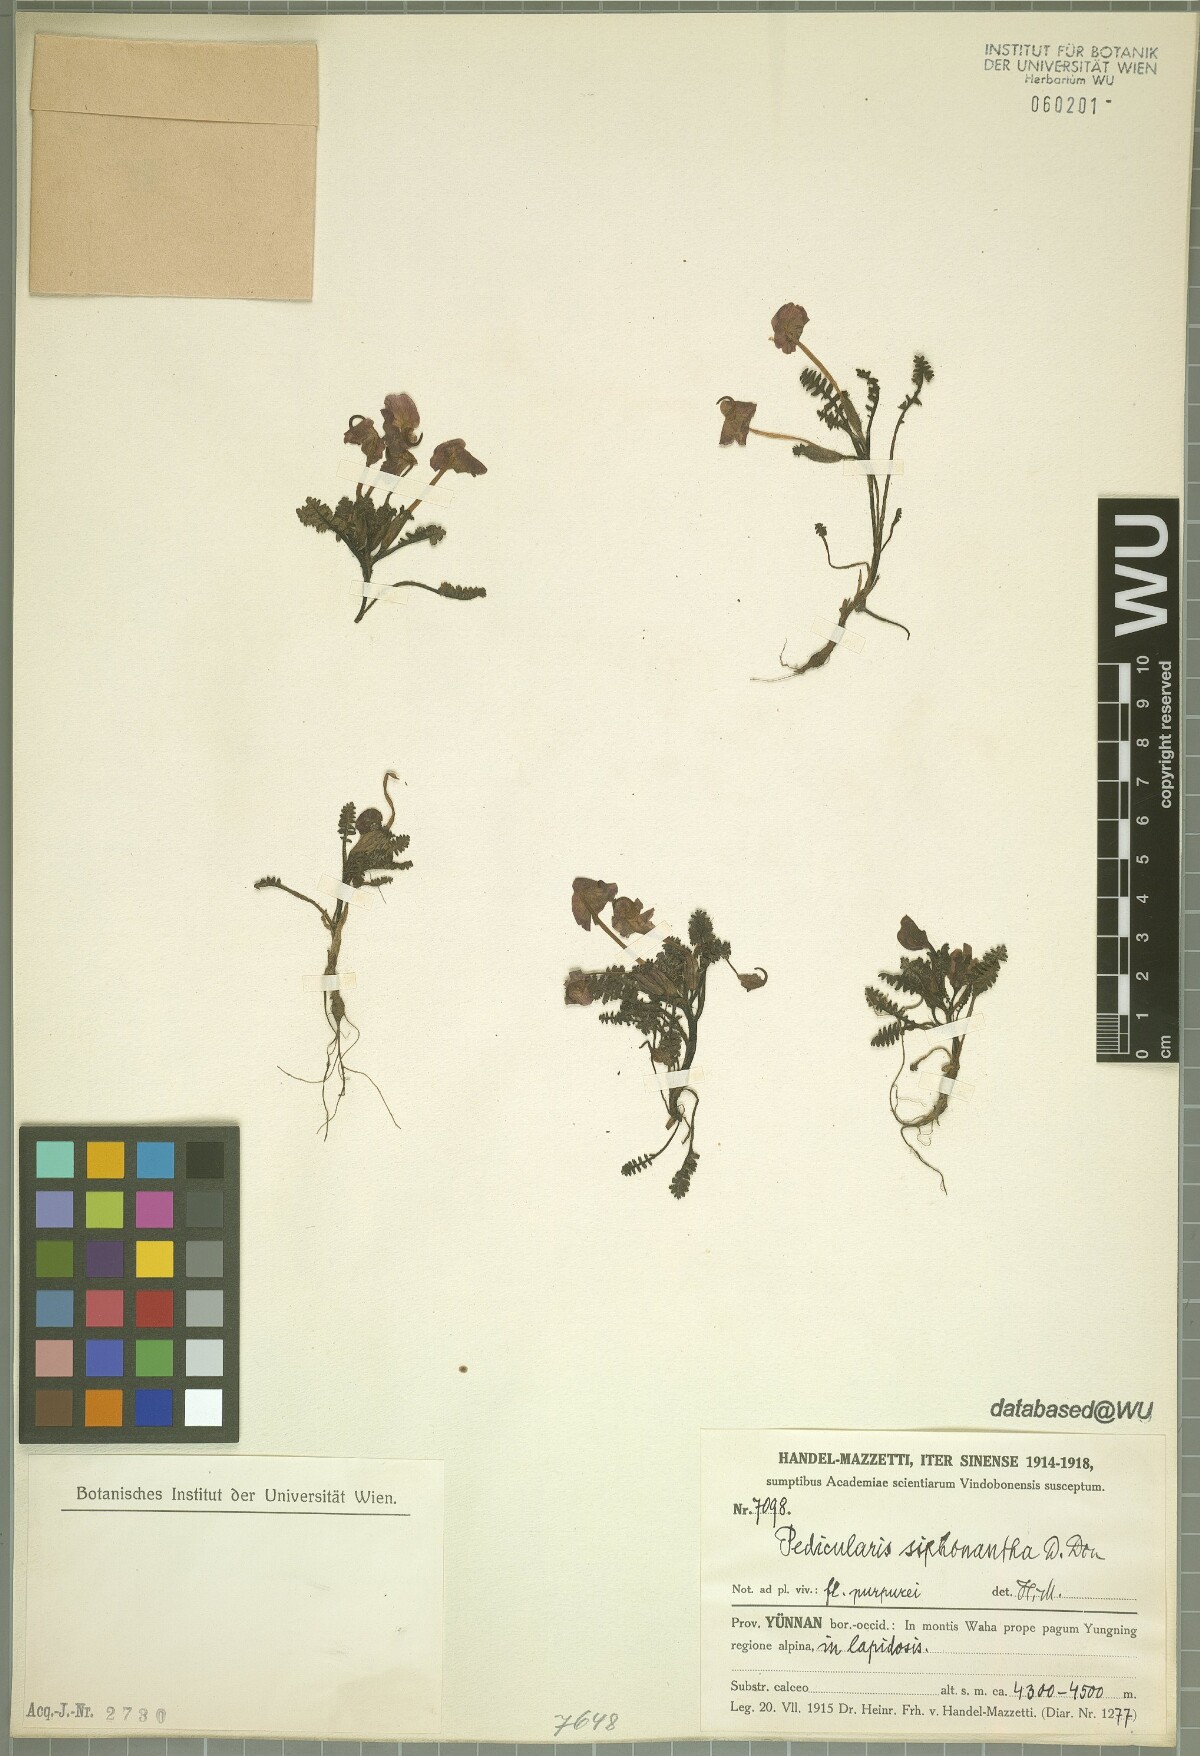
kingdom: Plantae
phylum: Tracheophyta
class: Magnoliopsida
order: Lamiales
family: Orobanchaceae
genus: Pedicularis
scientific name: Pedicularis siphonantha
